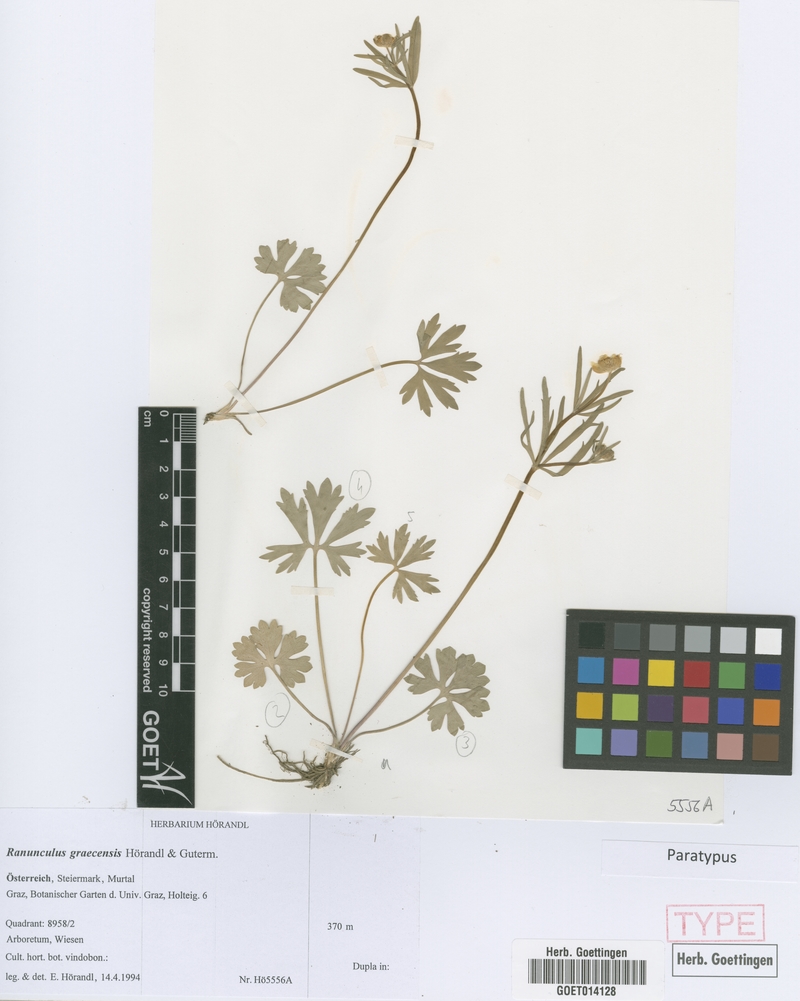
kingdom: Plantae
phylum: Tracheophyta
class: Magnoliopsida
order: Ranunculales
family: Ranunculaceae
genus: Ranunculus
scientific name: Ranunculus graecensis
